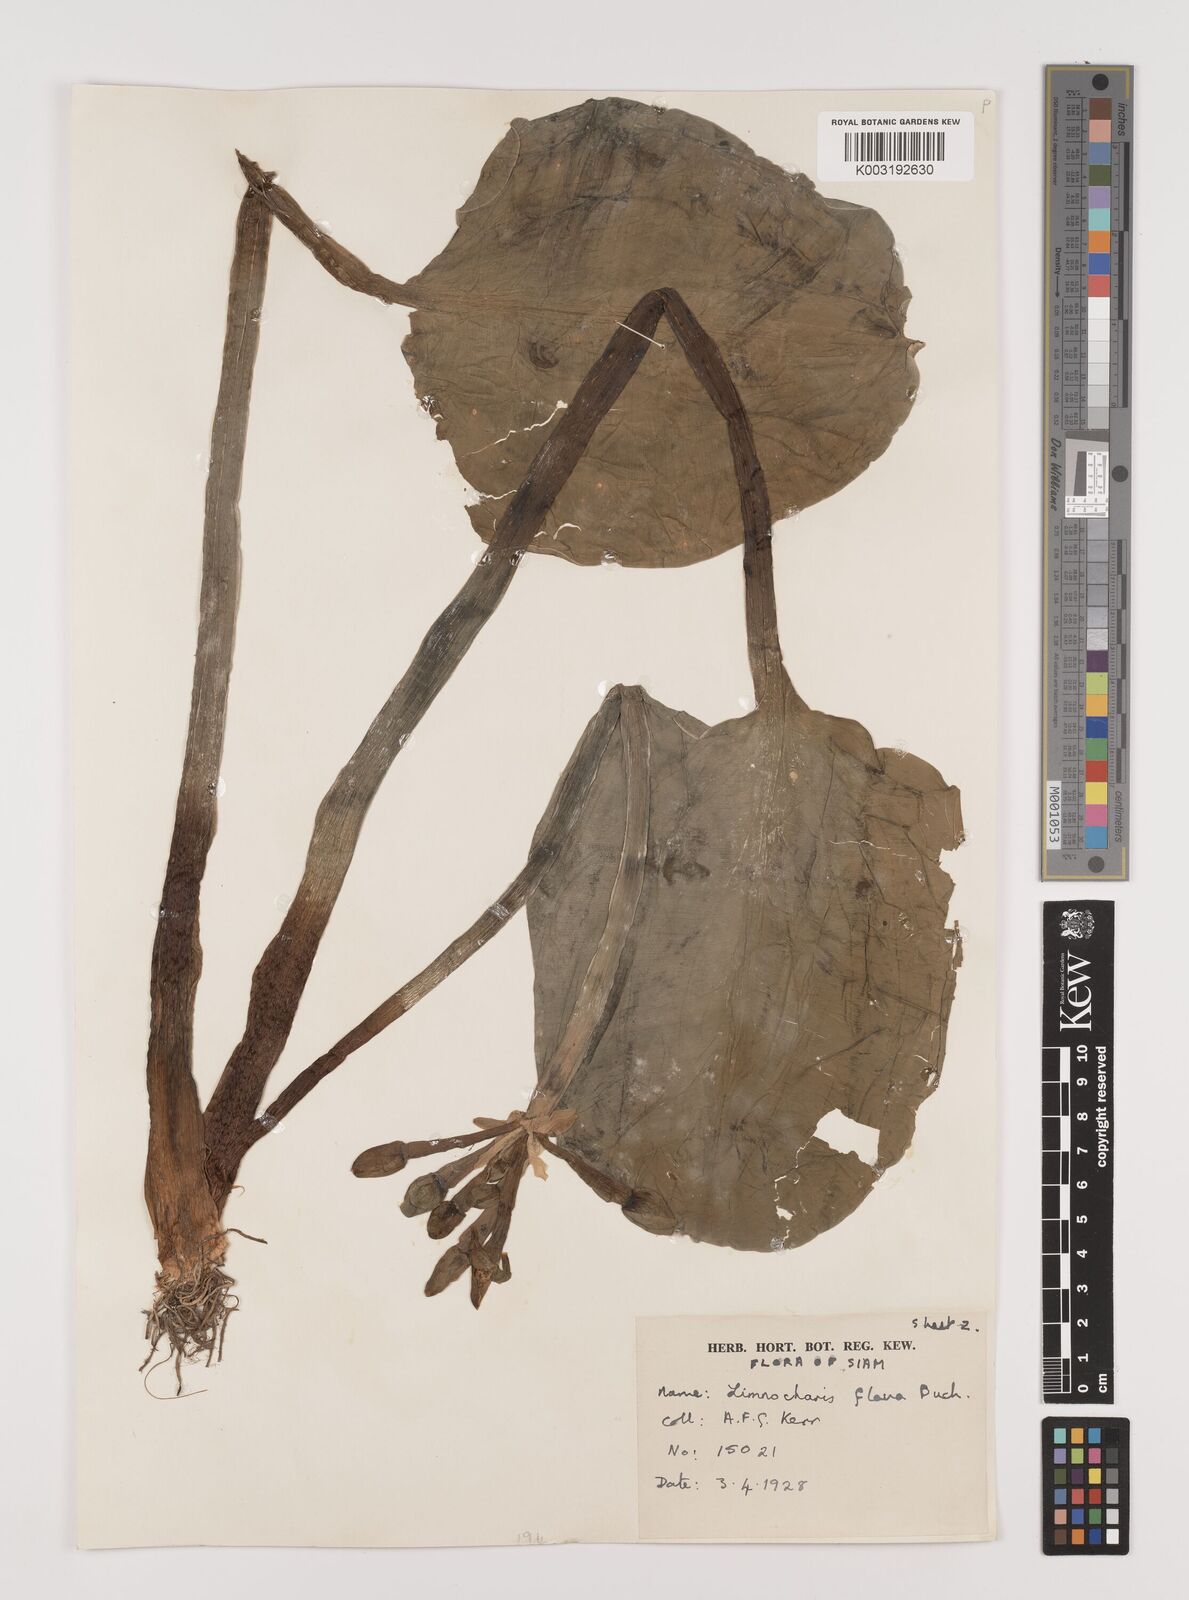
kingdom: Plantae
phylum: Tracheophyta
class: Liliopsida
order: Alismatales
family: Alismataceae
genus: Limnocharis
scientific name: Limnocharis flava
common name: Sawah-flower-rush
